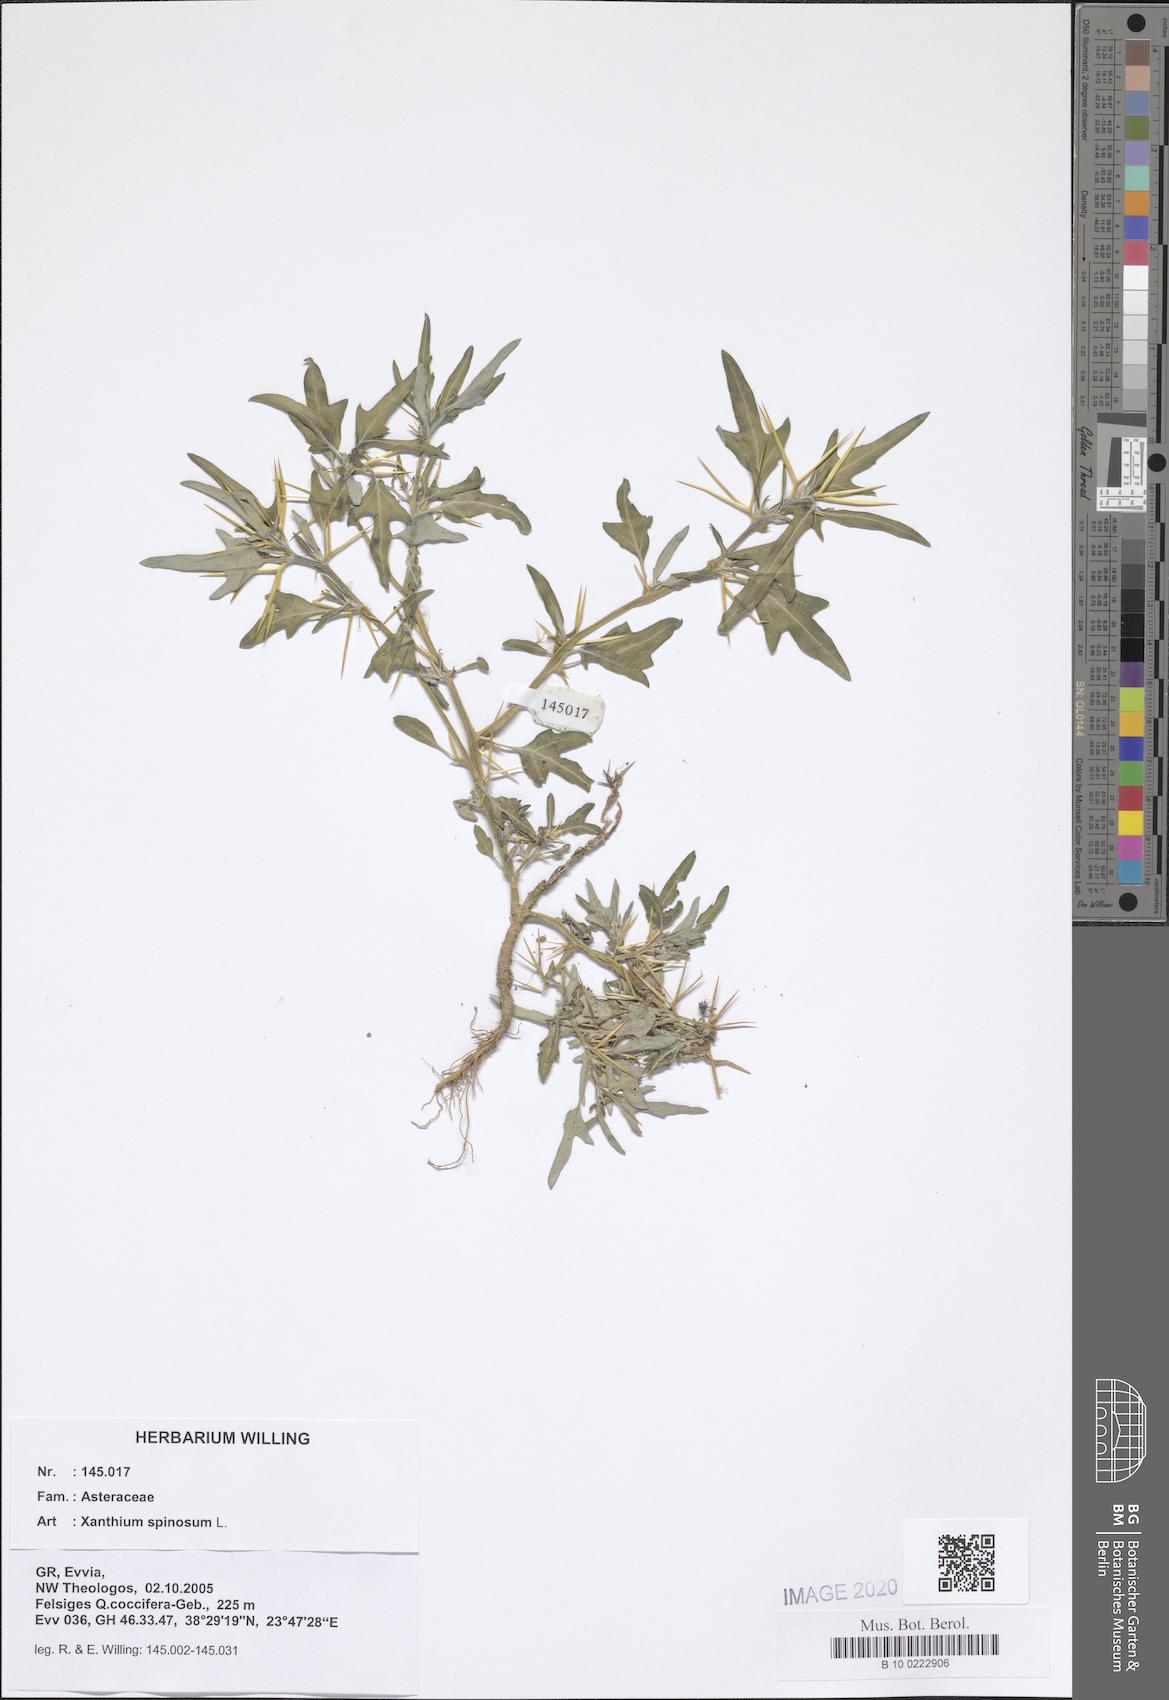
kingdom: Plantae
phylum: Tracheophyta
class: Magnoliopsida
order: Asterales
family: Asteraceae
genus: Xanthium
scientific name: Xanthium spinosum
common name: Spiny cocklebur
